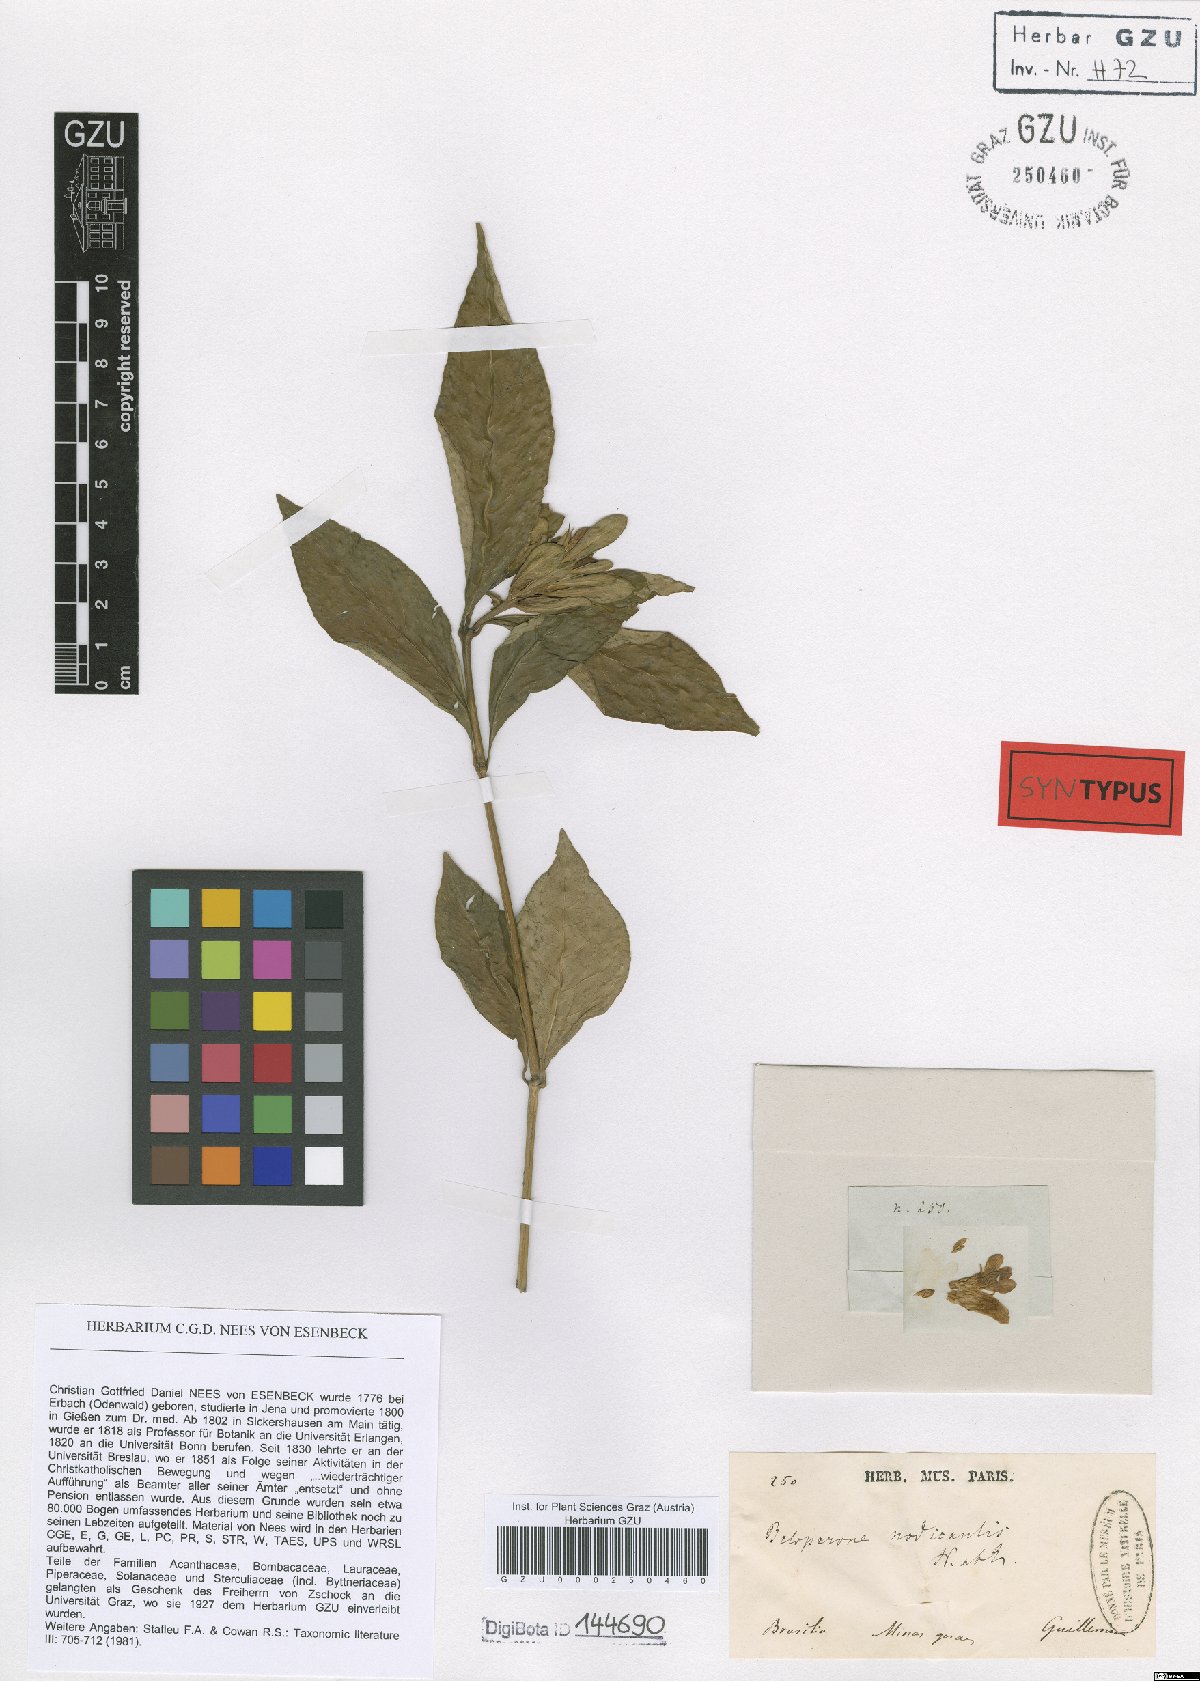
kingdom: Plantae
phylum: Tracheophyta
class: Magnoliopsida
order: Lamiales
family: Acanthaceae
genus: Justicia
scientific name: Justicia nodicaulis
